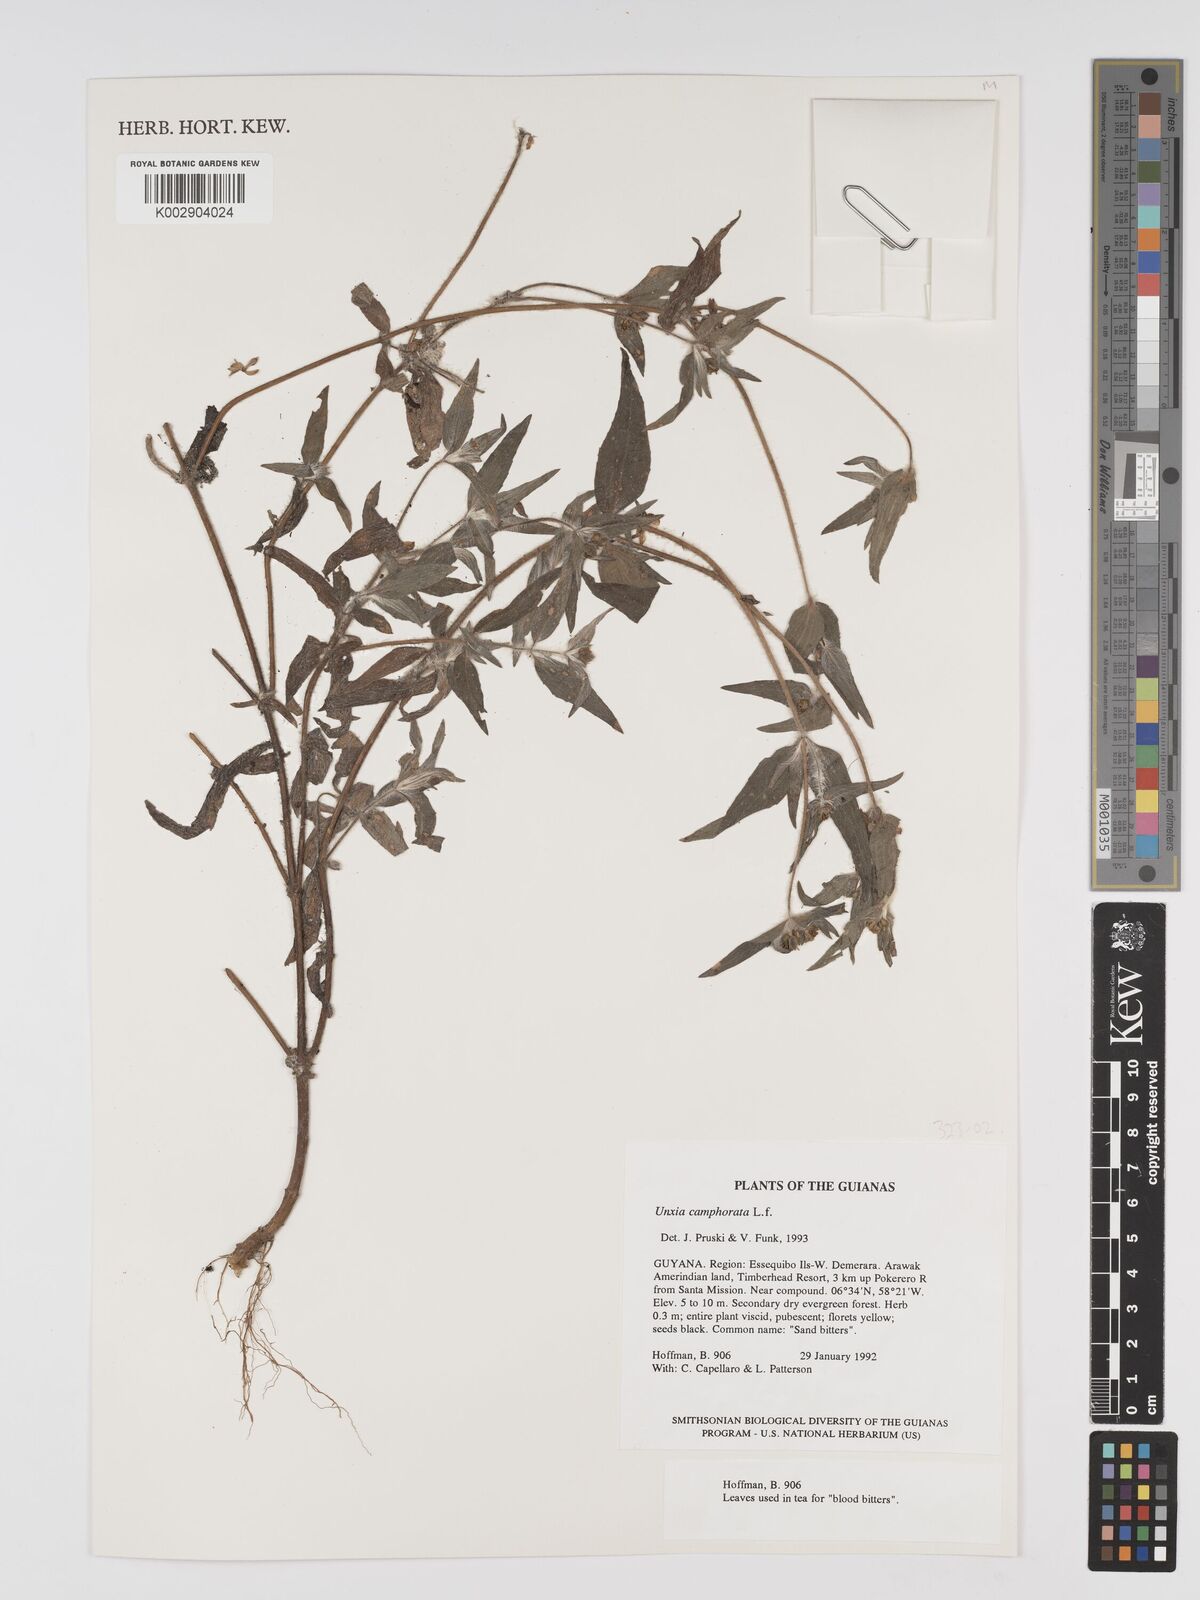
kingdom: Plantae
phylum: Tracheophyta
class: Magnoliopsida
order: Asterales
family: Asteraceae
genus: Unxia
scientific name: Unxia camphorata
